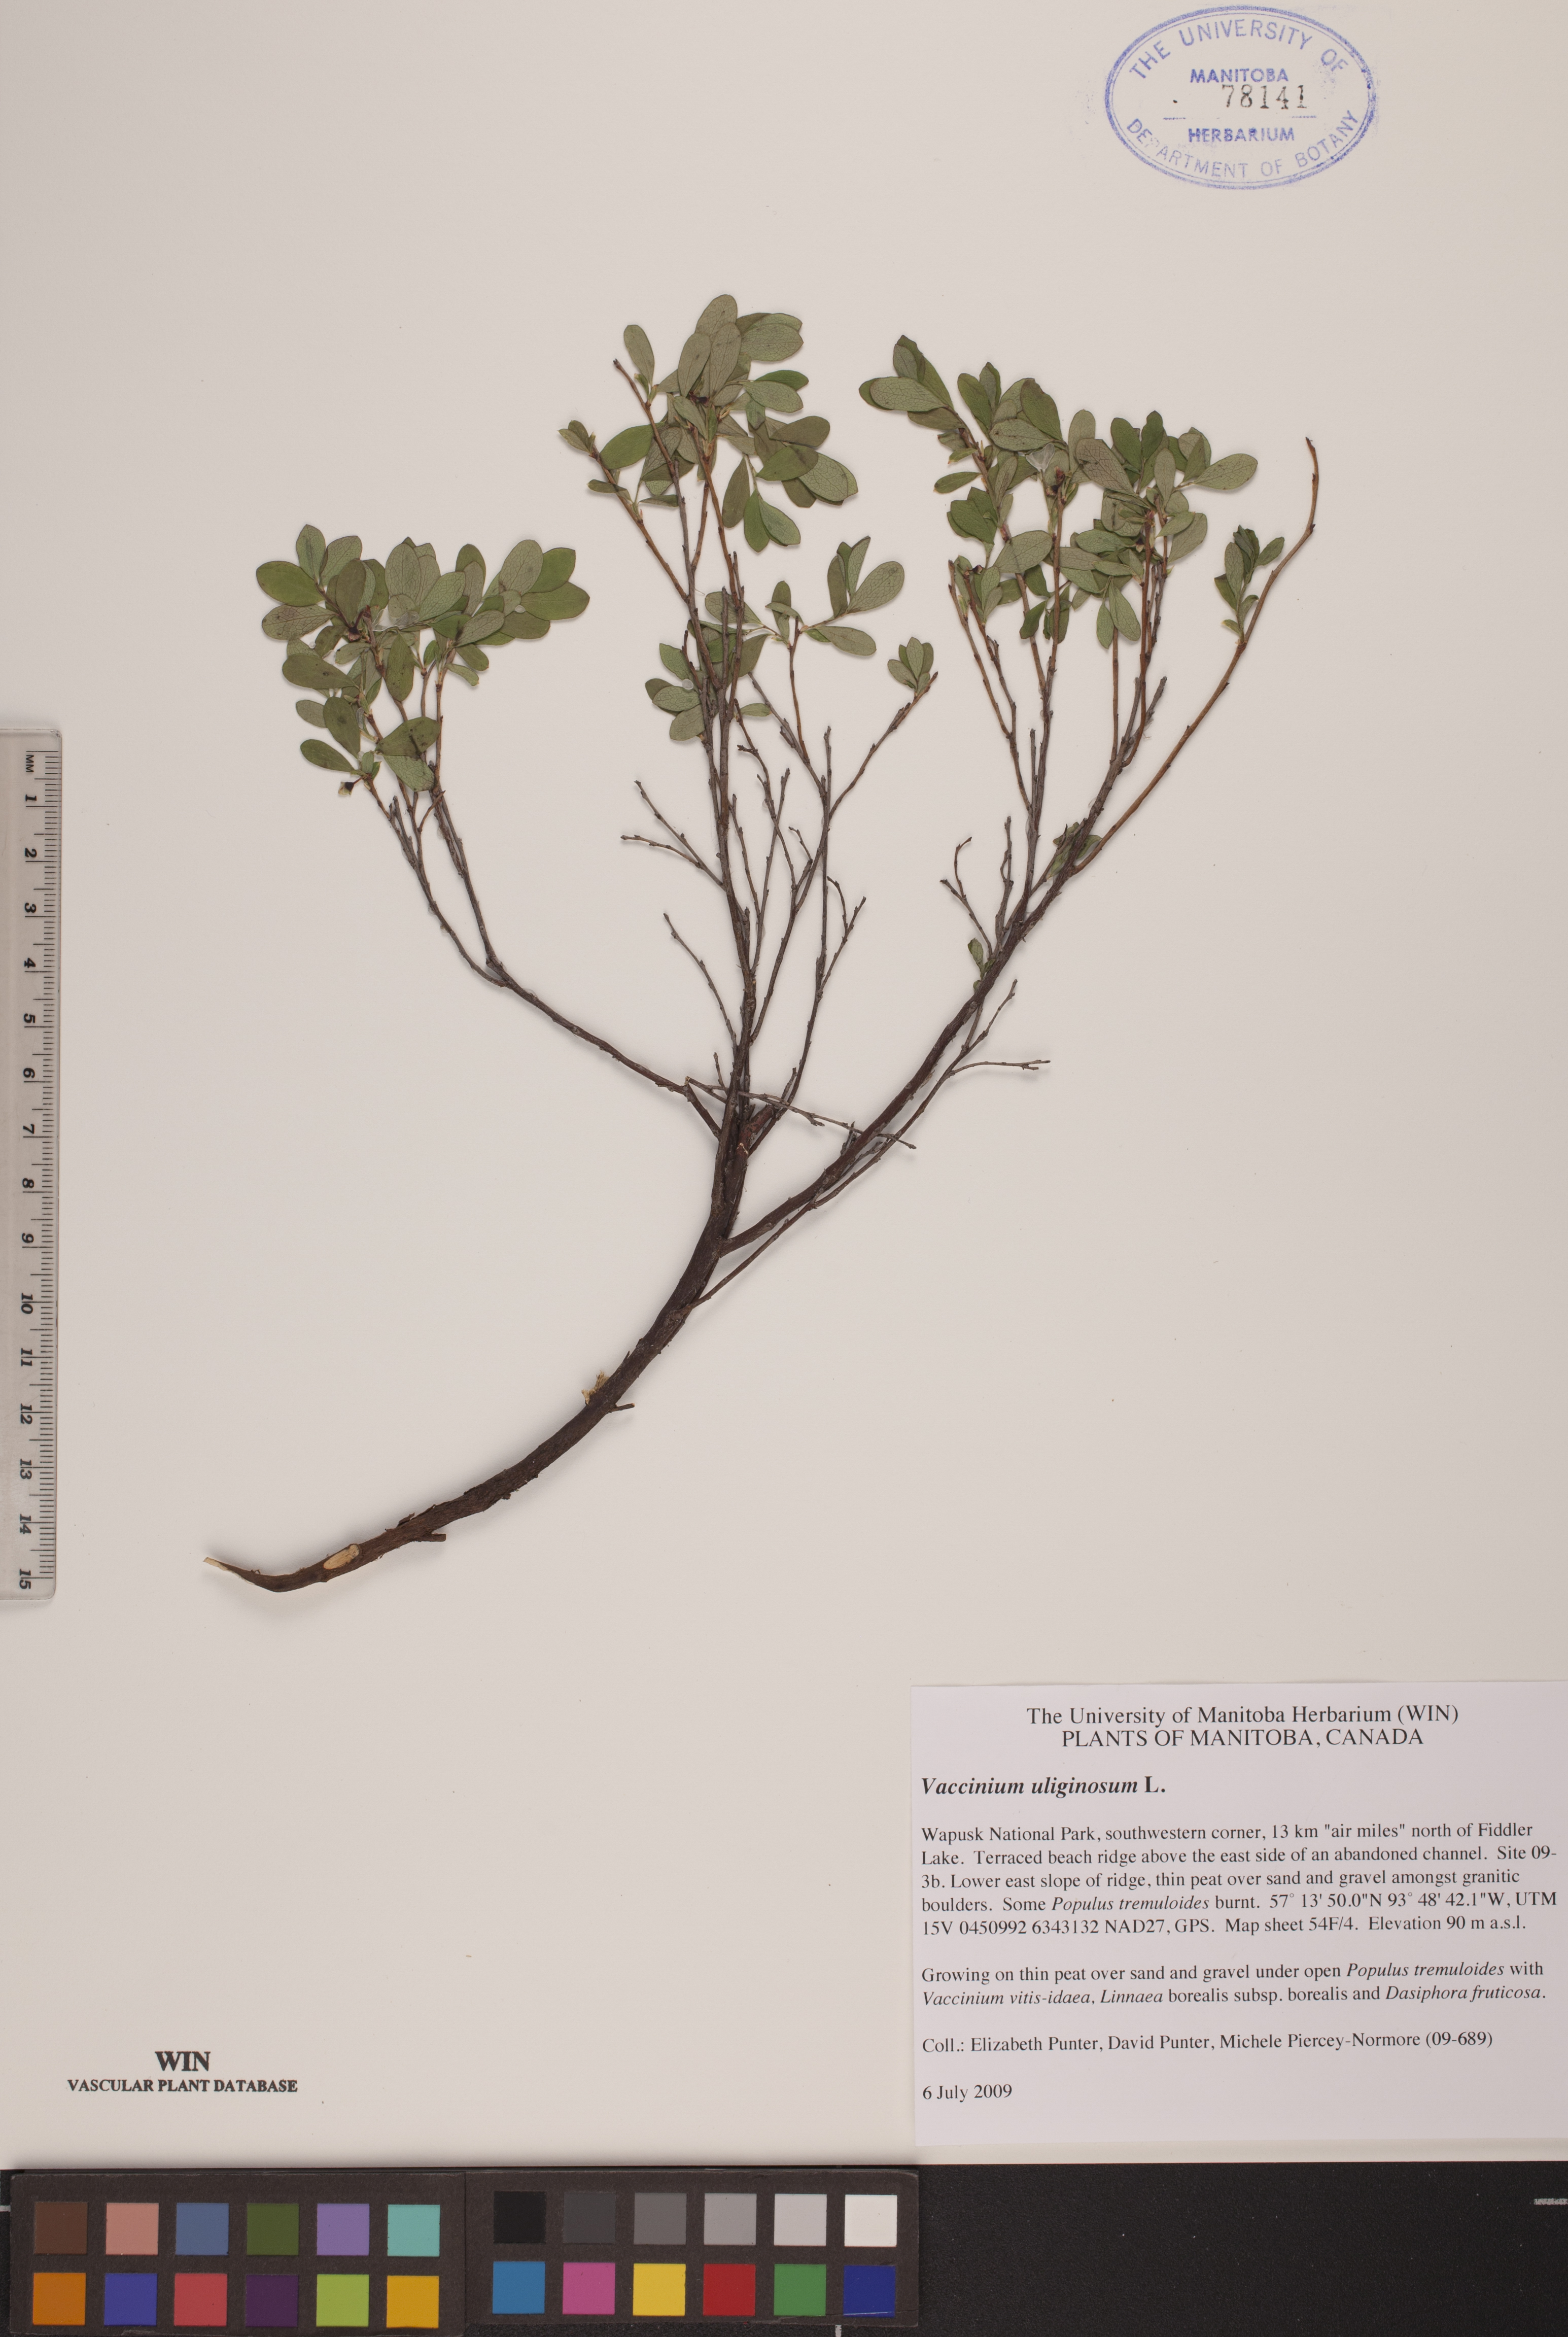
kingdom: Plantae
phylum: Tracheophyta
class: Magnoliopsida
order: Ericales
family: Ericaceae
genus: Vaccinium
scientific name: Vaccinium uliginosum
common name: Bog bilberry
